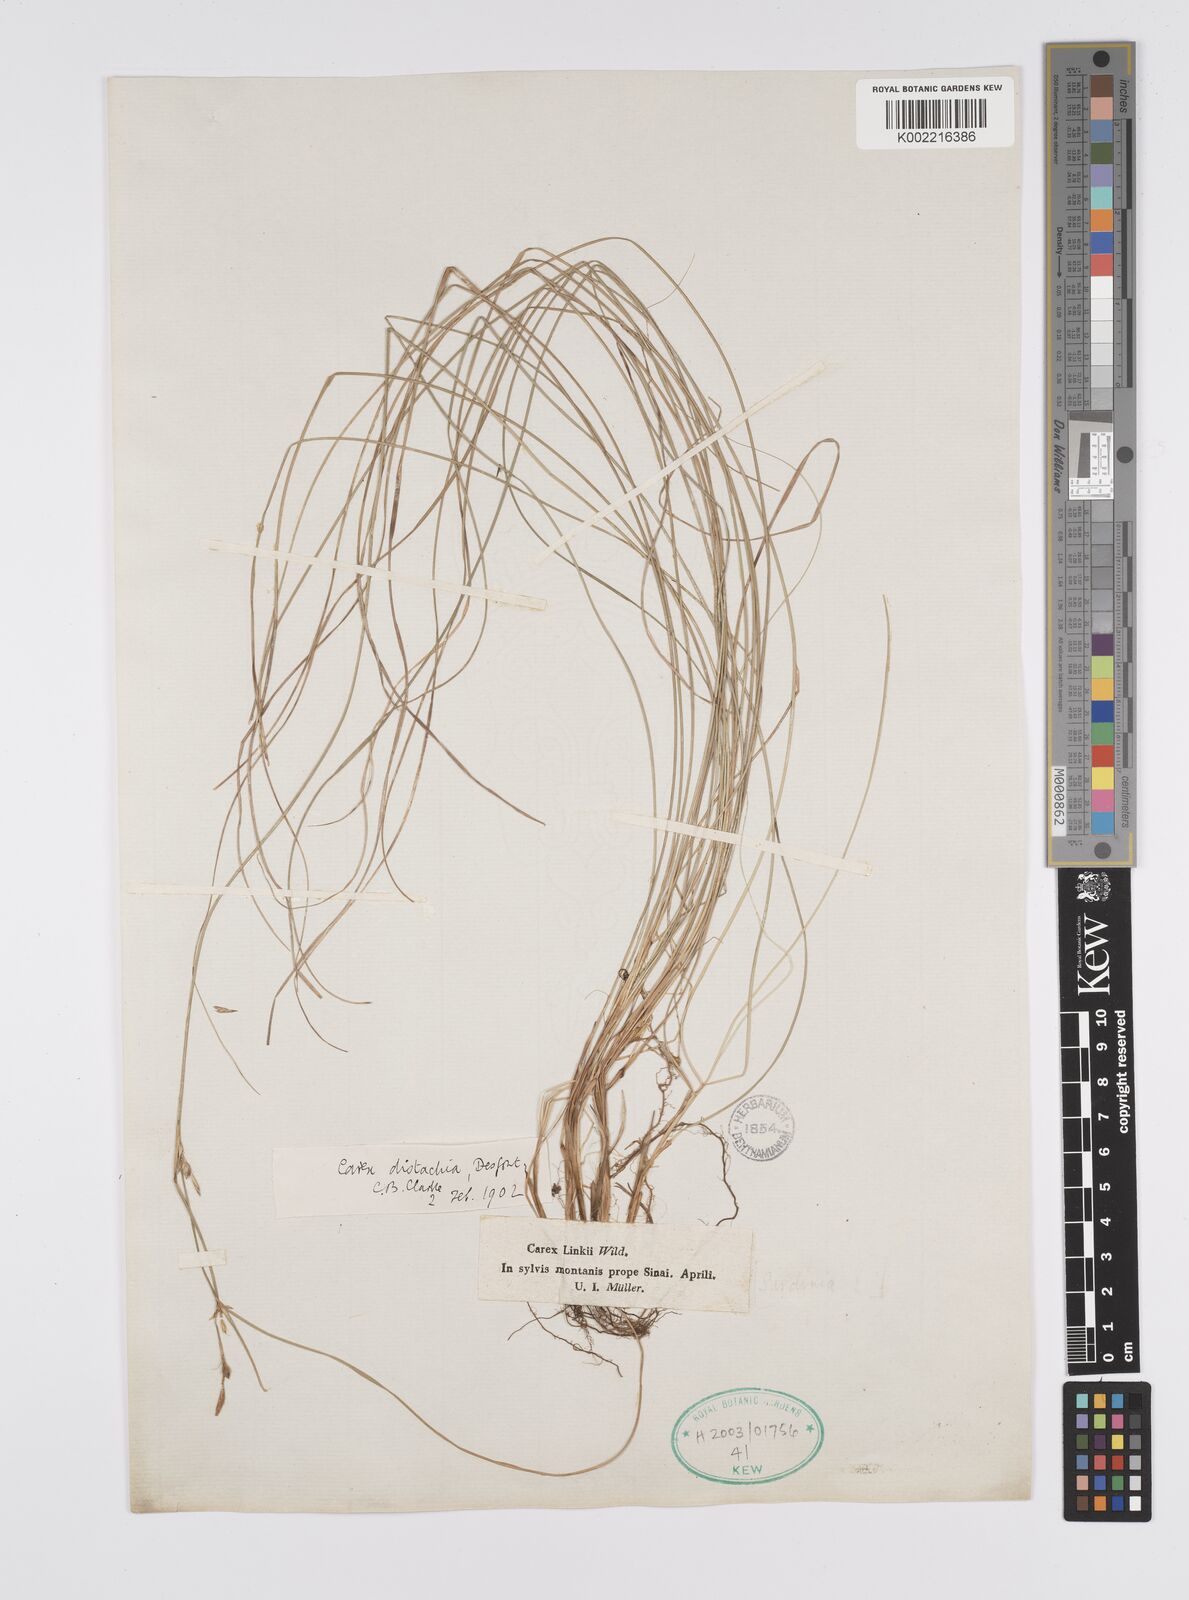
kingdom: Plantae
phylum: Tracheophyta
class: Liliopsida
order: Poales
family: Cyperaceae
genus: Carex
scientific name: Carex distachya
